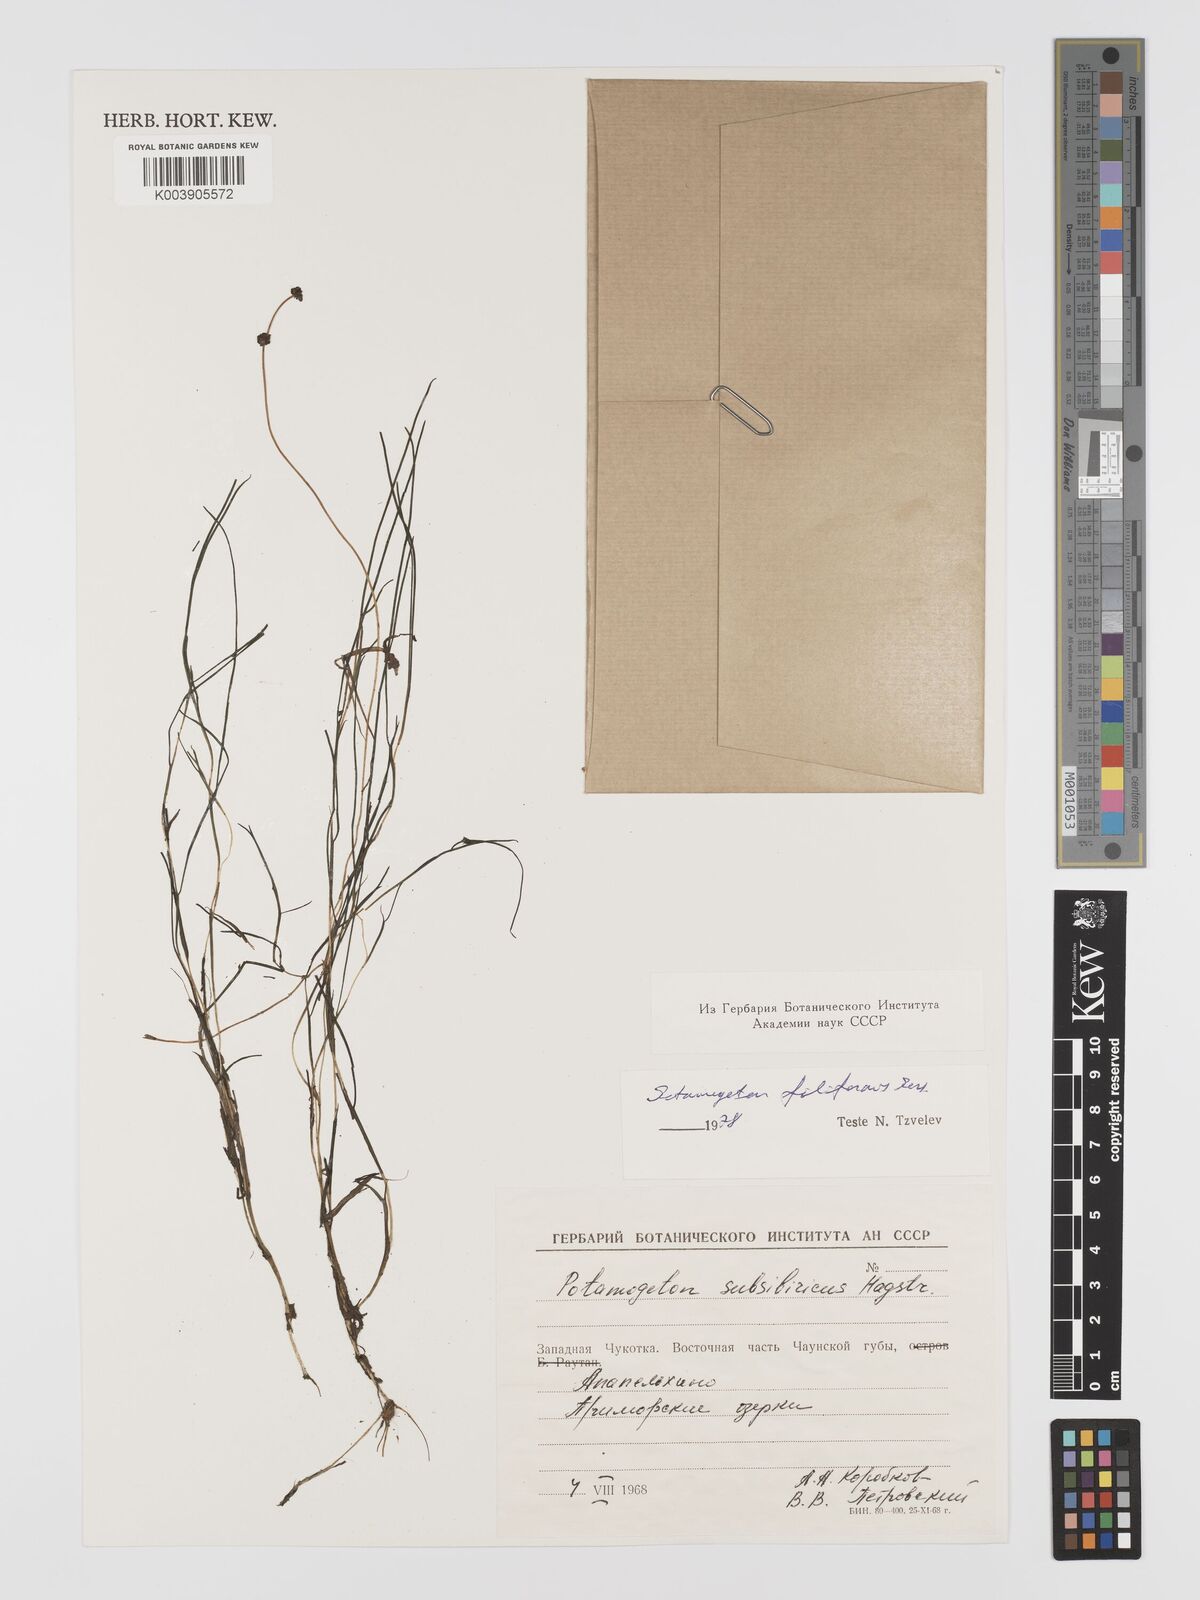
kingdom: Plantae
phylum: Tracheophyta
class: Liliopsida
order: Alismatales
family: Potamogetonaceae
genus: Stuckenia
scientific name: Stuckenia filiformis
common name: Alpine thread-leaved pondweed
